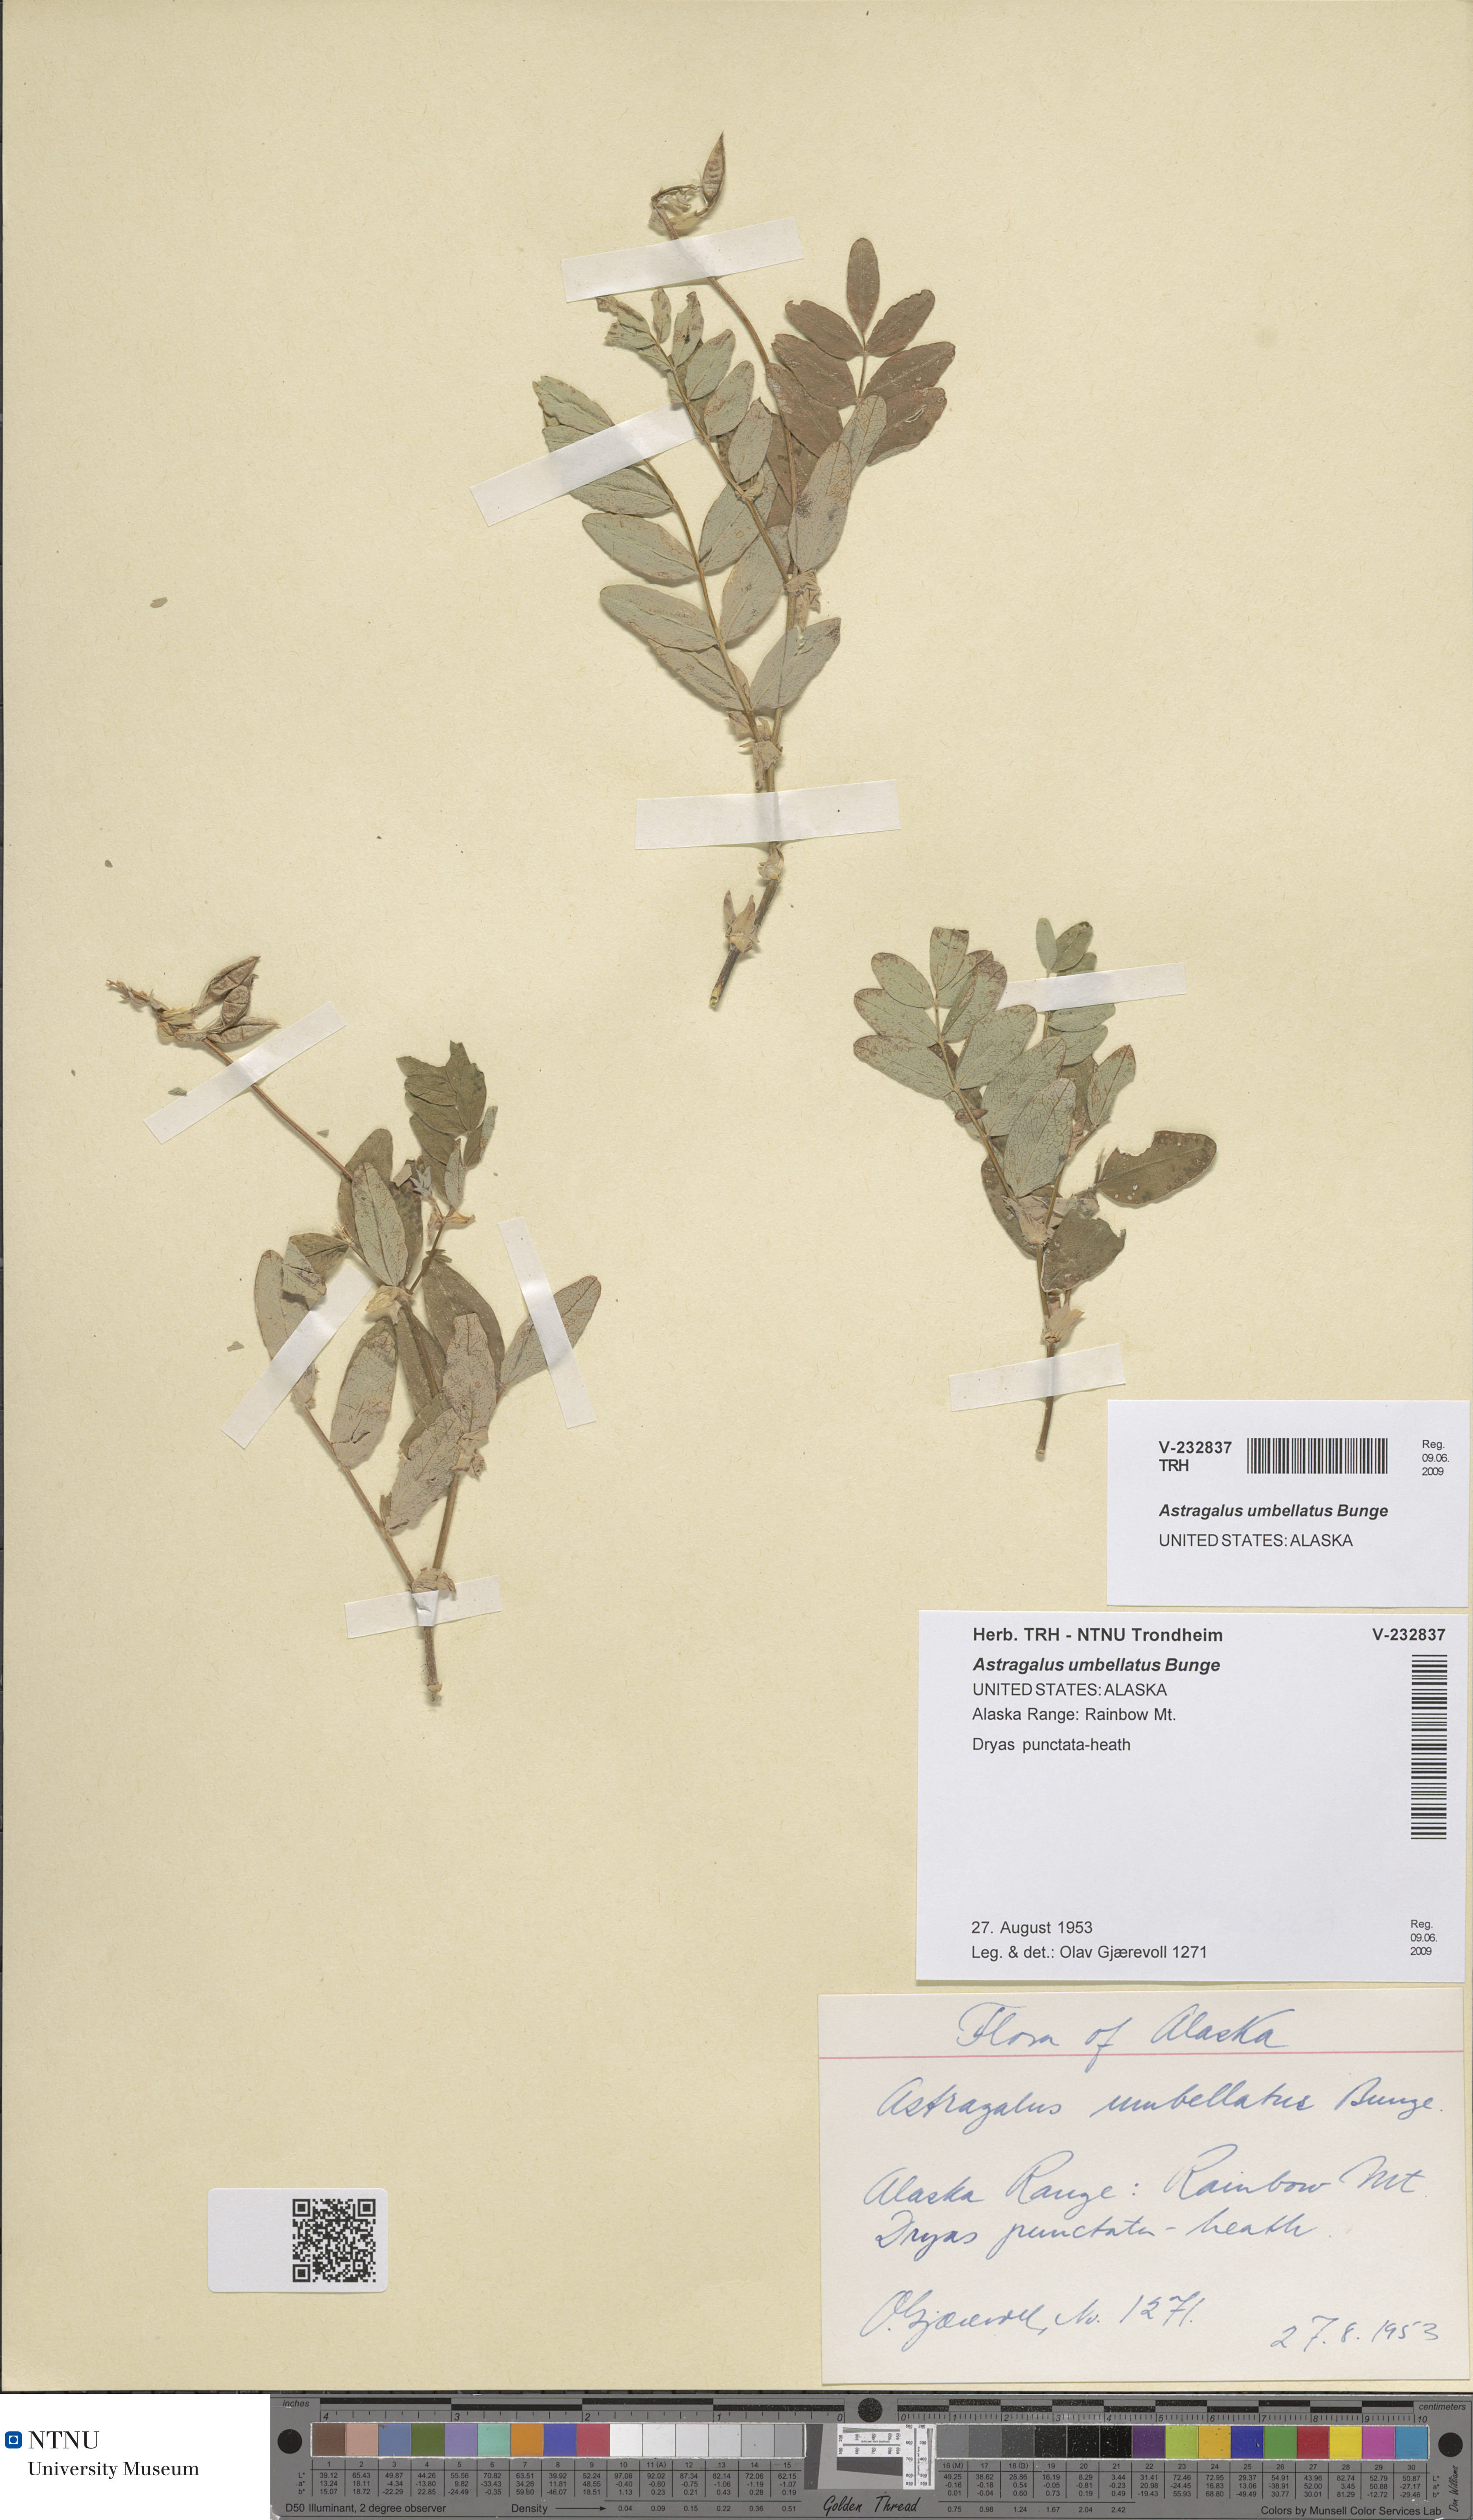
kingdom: Plantae
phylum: Tracheophyta
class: Magnoliopsida
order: Fabales
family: Fabaceae
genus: Astragalus
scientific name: Astragalus umbellatus
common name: Tundra milk-vetch
